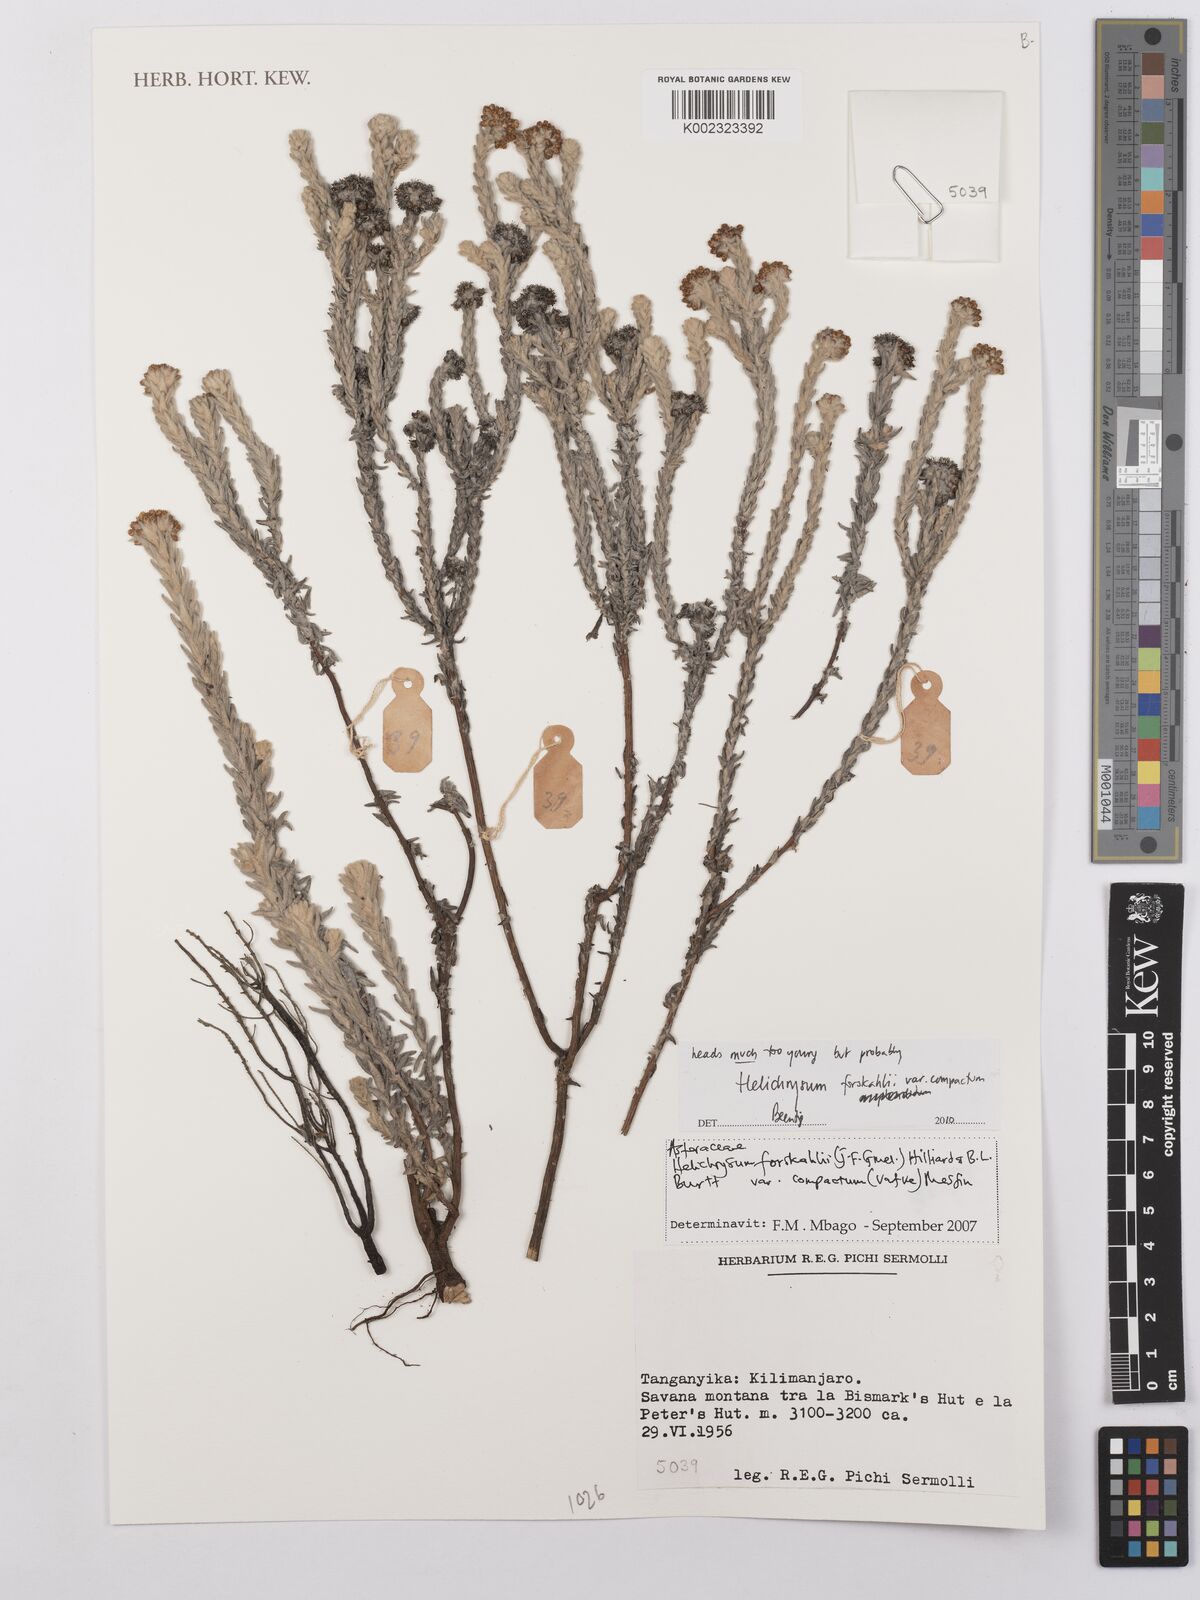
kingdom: Plantae
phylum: Tracheophyta
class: Magnoliopsida
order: Asterales
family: Asteraceae
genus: Helichrysum
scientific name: Helichrysum forskahlii
